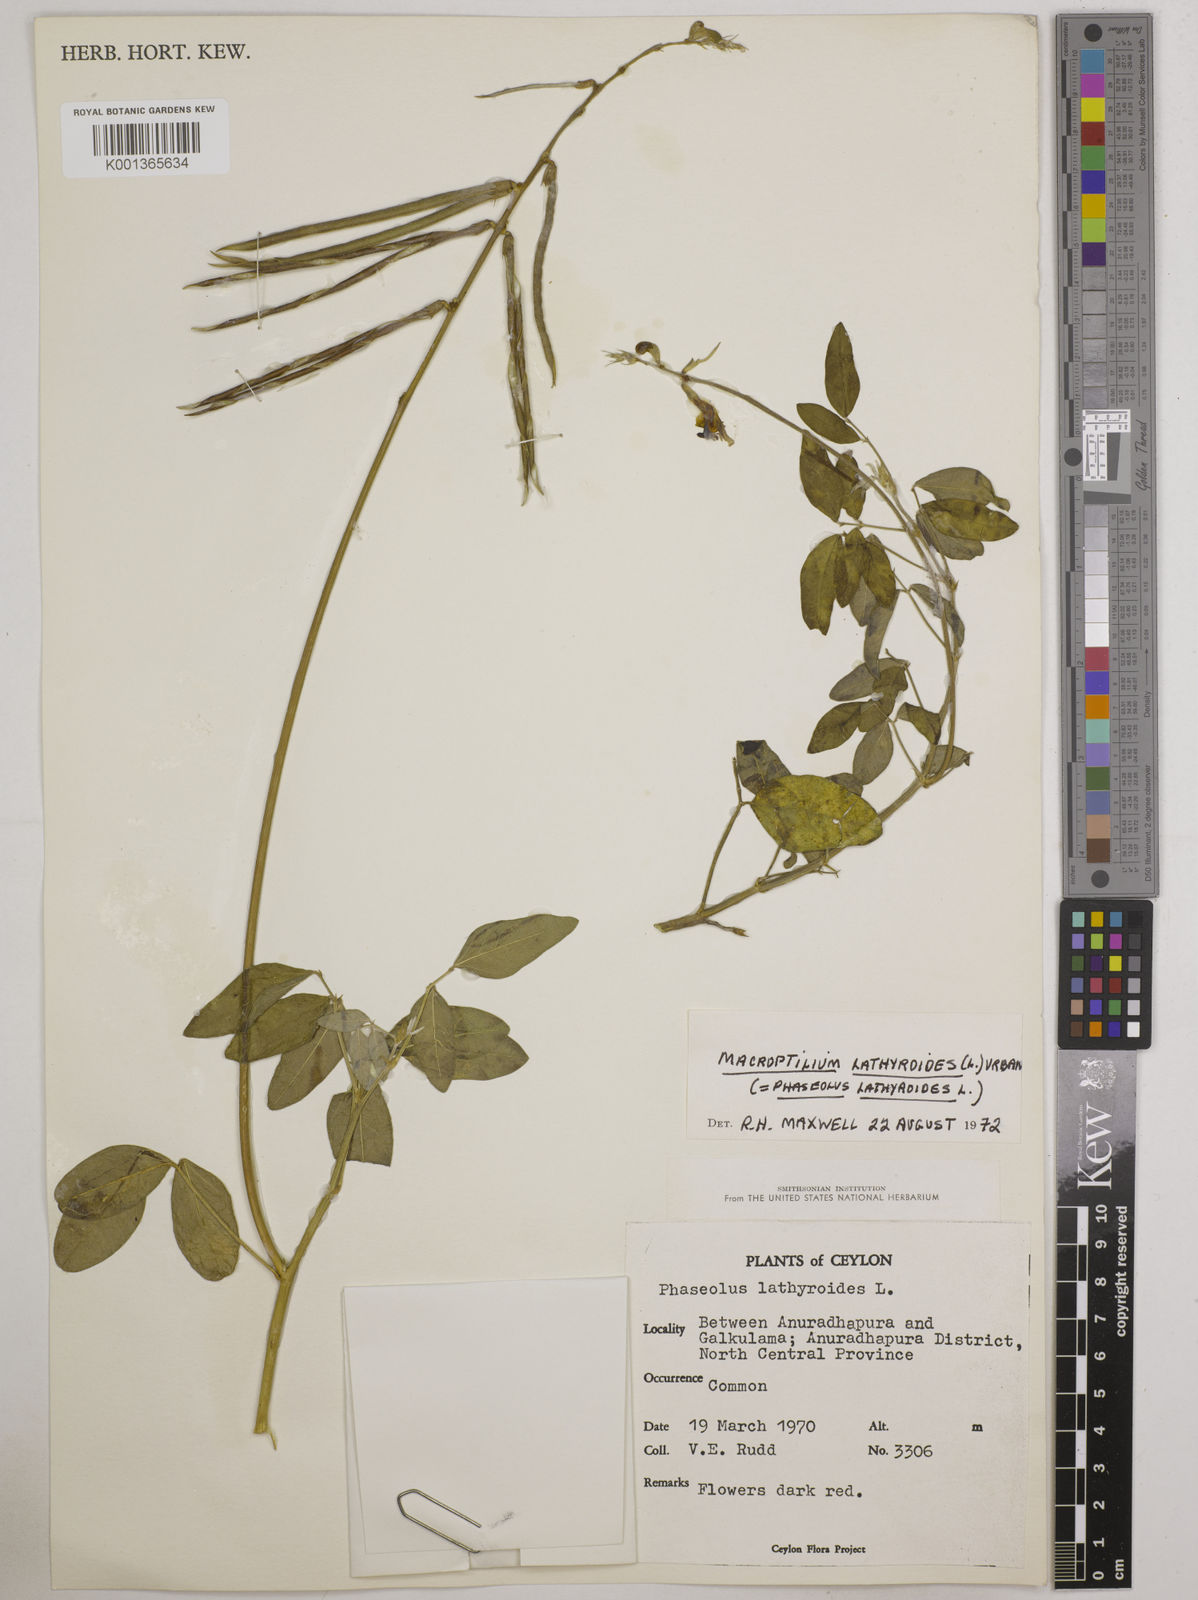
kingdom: Plantae
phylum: Tracheophyta
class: Magnoliopsida
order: Fabales
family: Fabaceae
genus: Macroptilium
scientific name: Macroptilium lathyroides
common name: Wild bushbean
